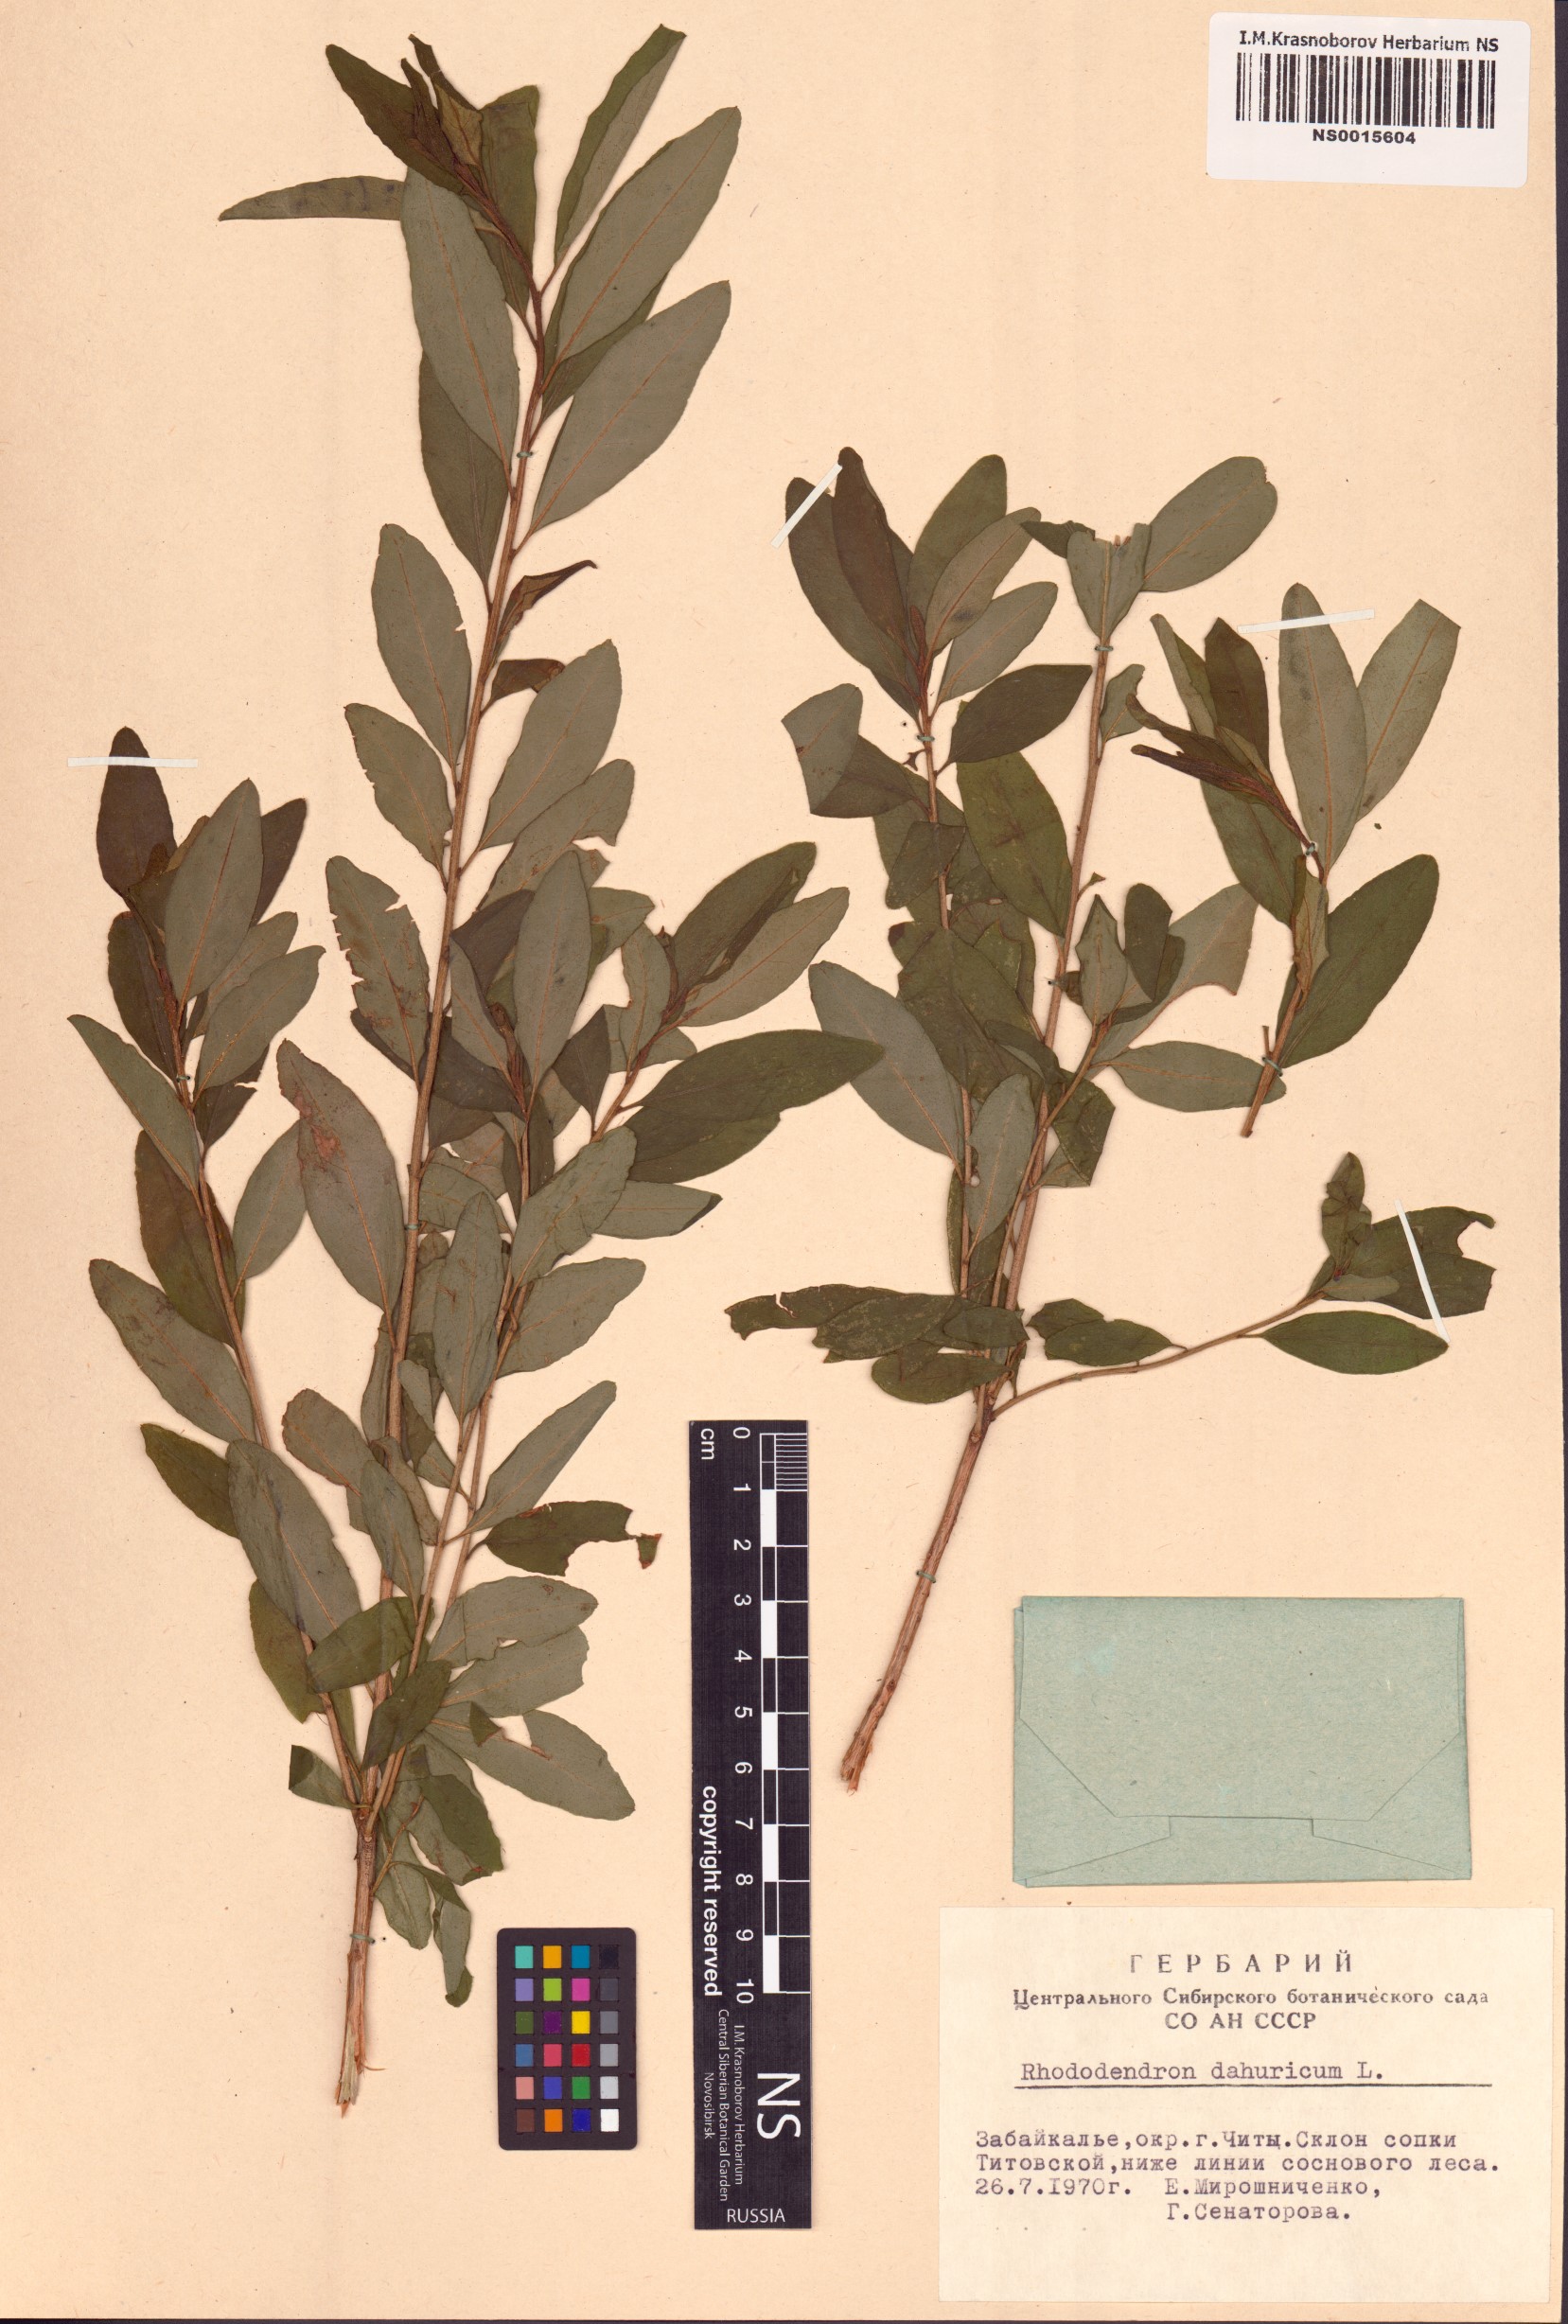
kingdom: Plantae
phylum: Tracheophyta
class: Magnoliopsida
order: Ericales
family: Ericaceae
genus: Rhododendron
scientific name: Rhododendron dauricum
